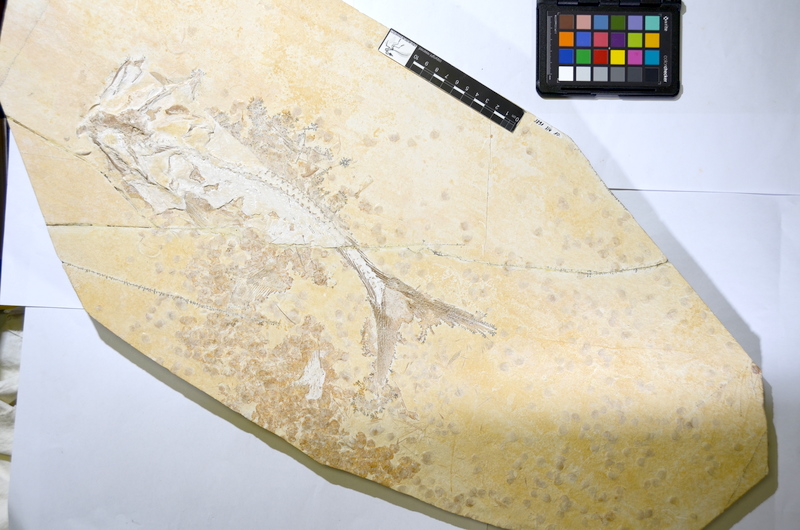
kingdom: Animalia
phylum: Chordata
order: Amiiformes
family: Caturidae
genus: Caturus
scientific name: Caturus furcatus
